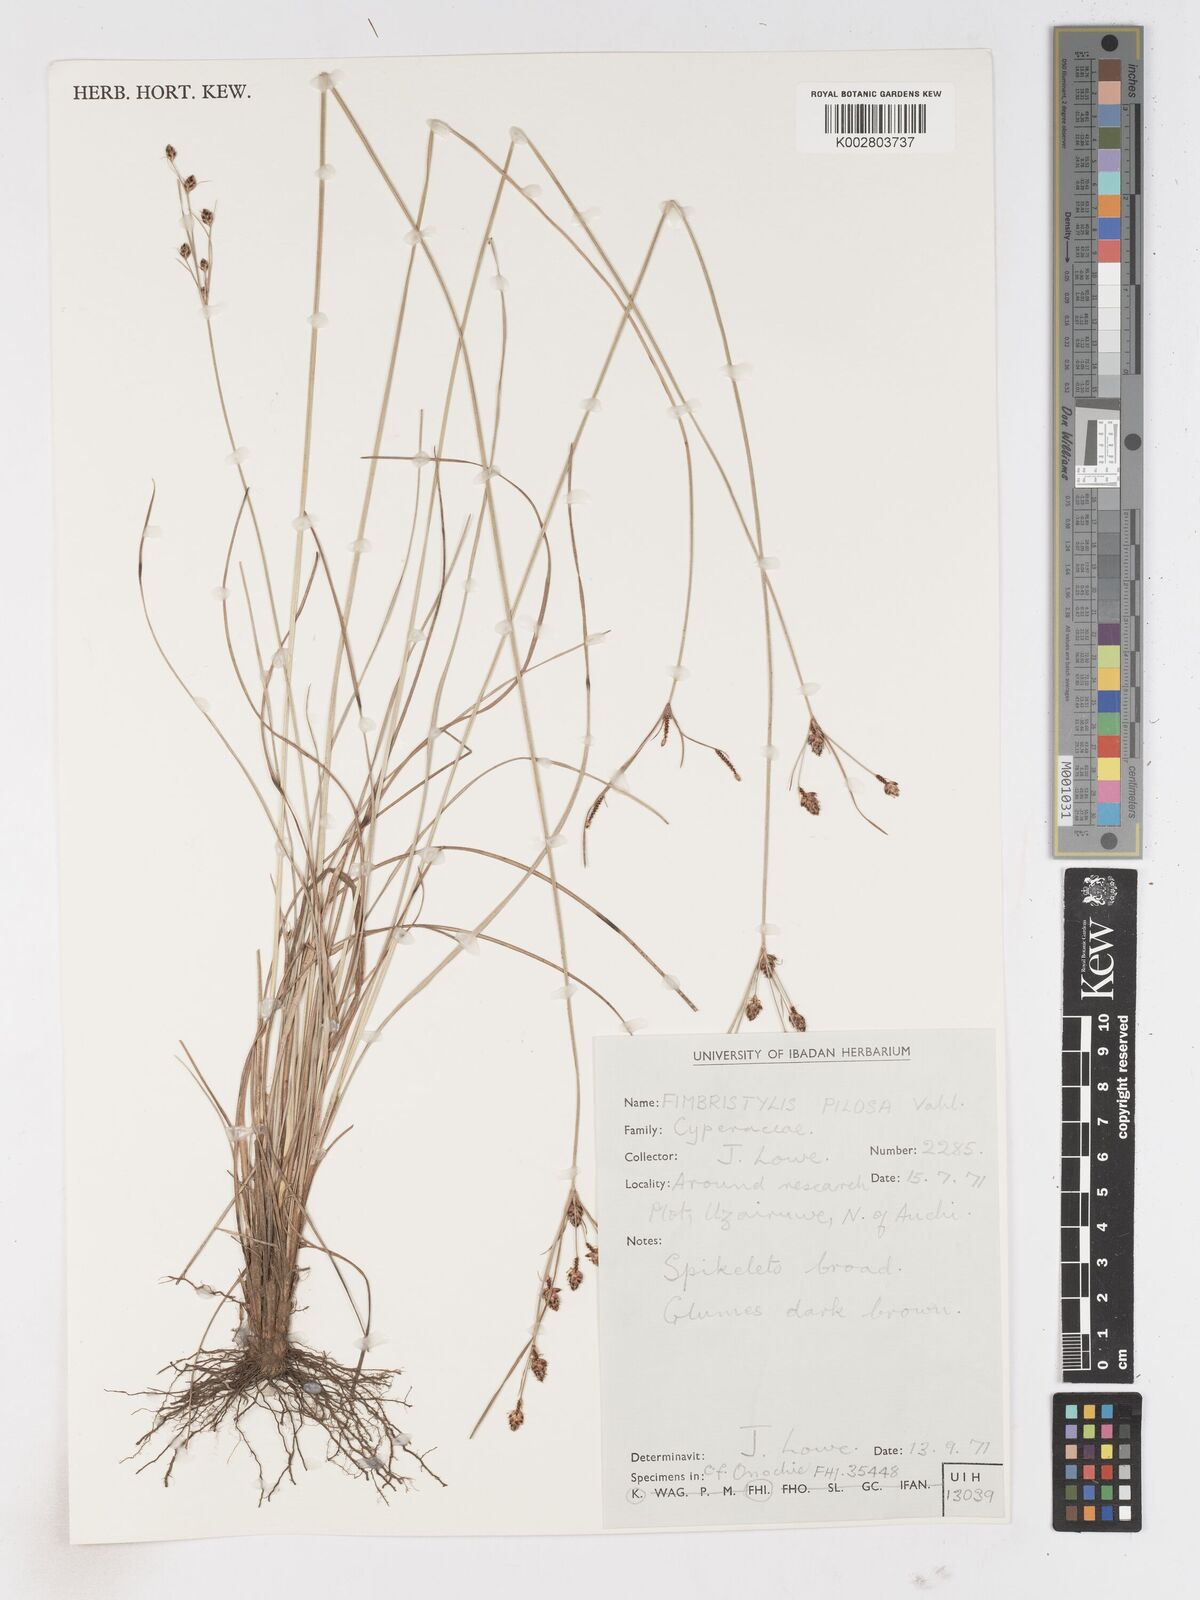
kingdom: Plantae
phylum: Tracheophyta
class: Liliopsida
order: Poales
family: Cyperaceae
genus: Fimbristylis
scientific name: Fimbristylis pilosa
